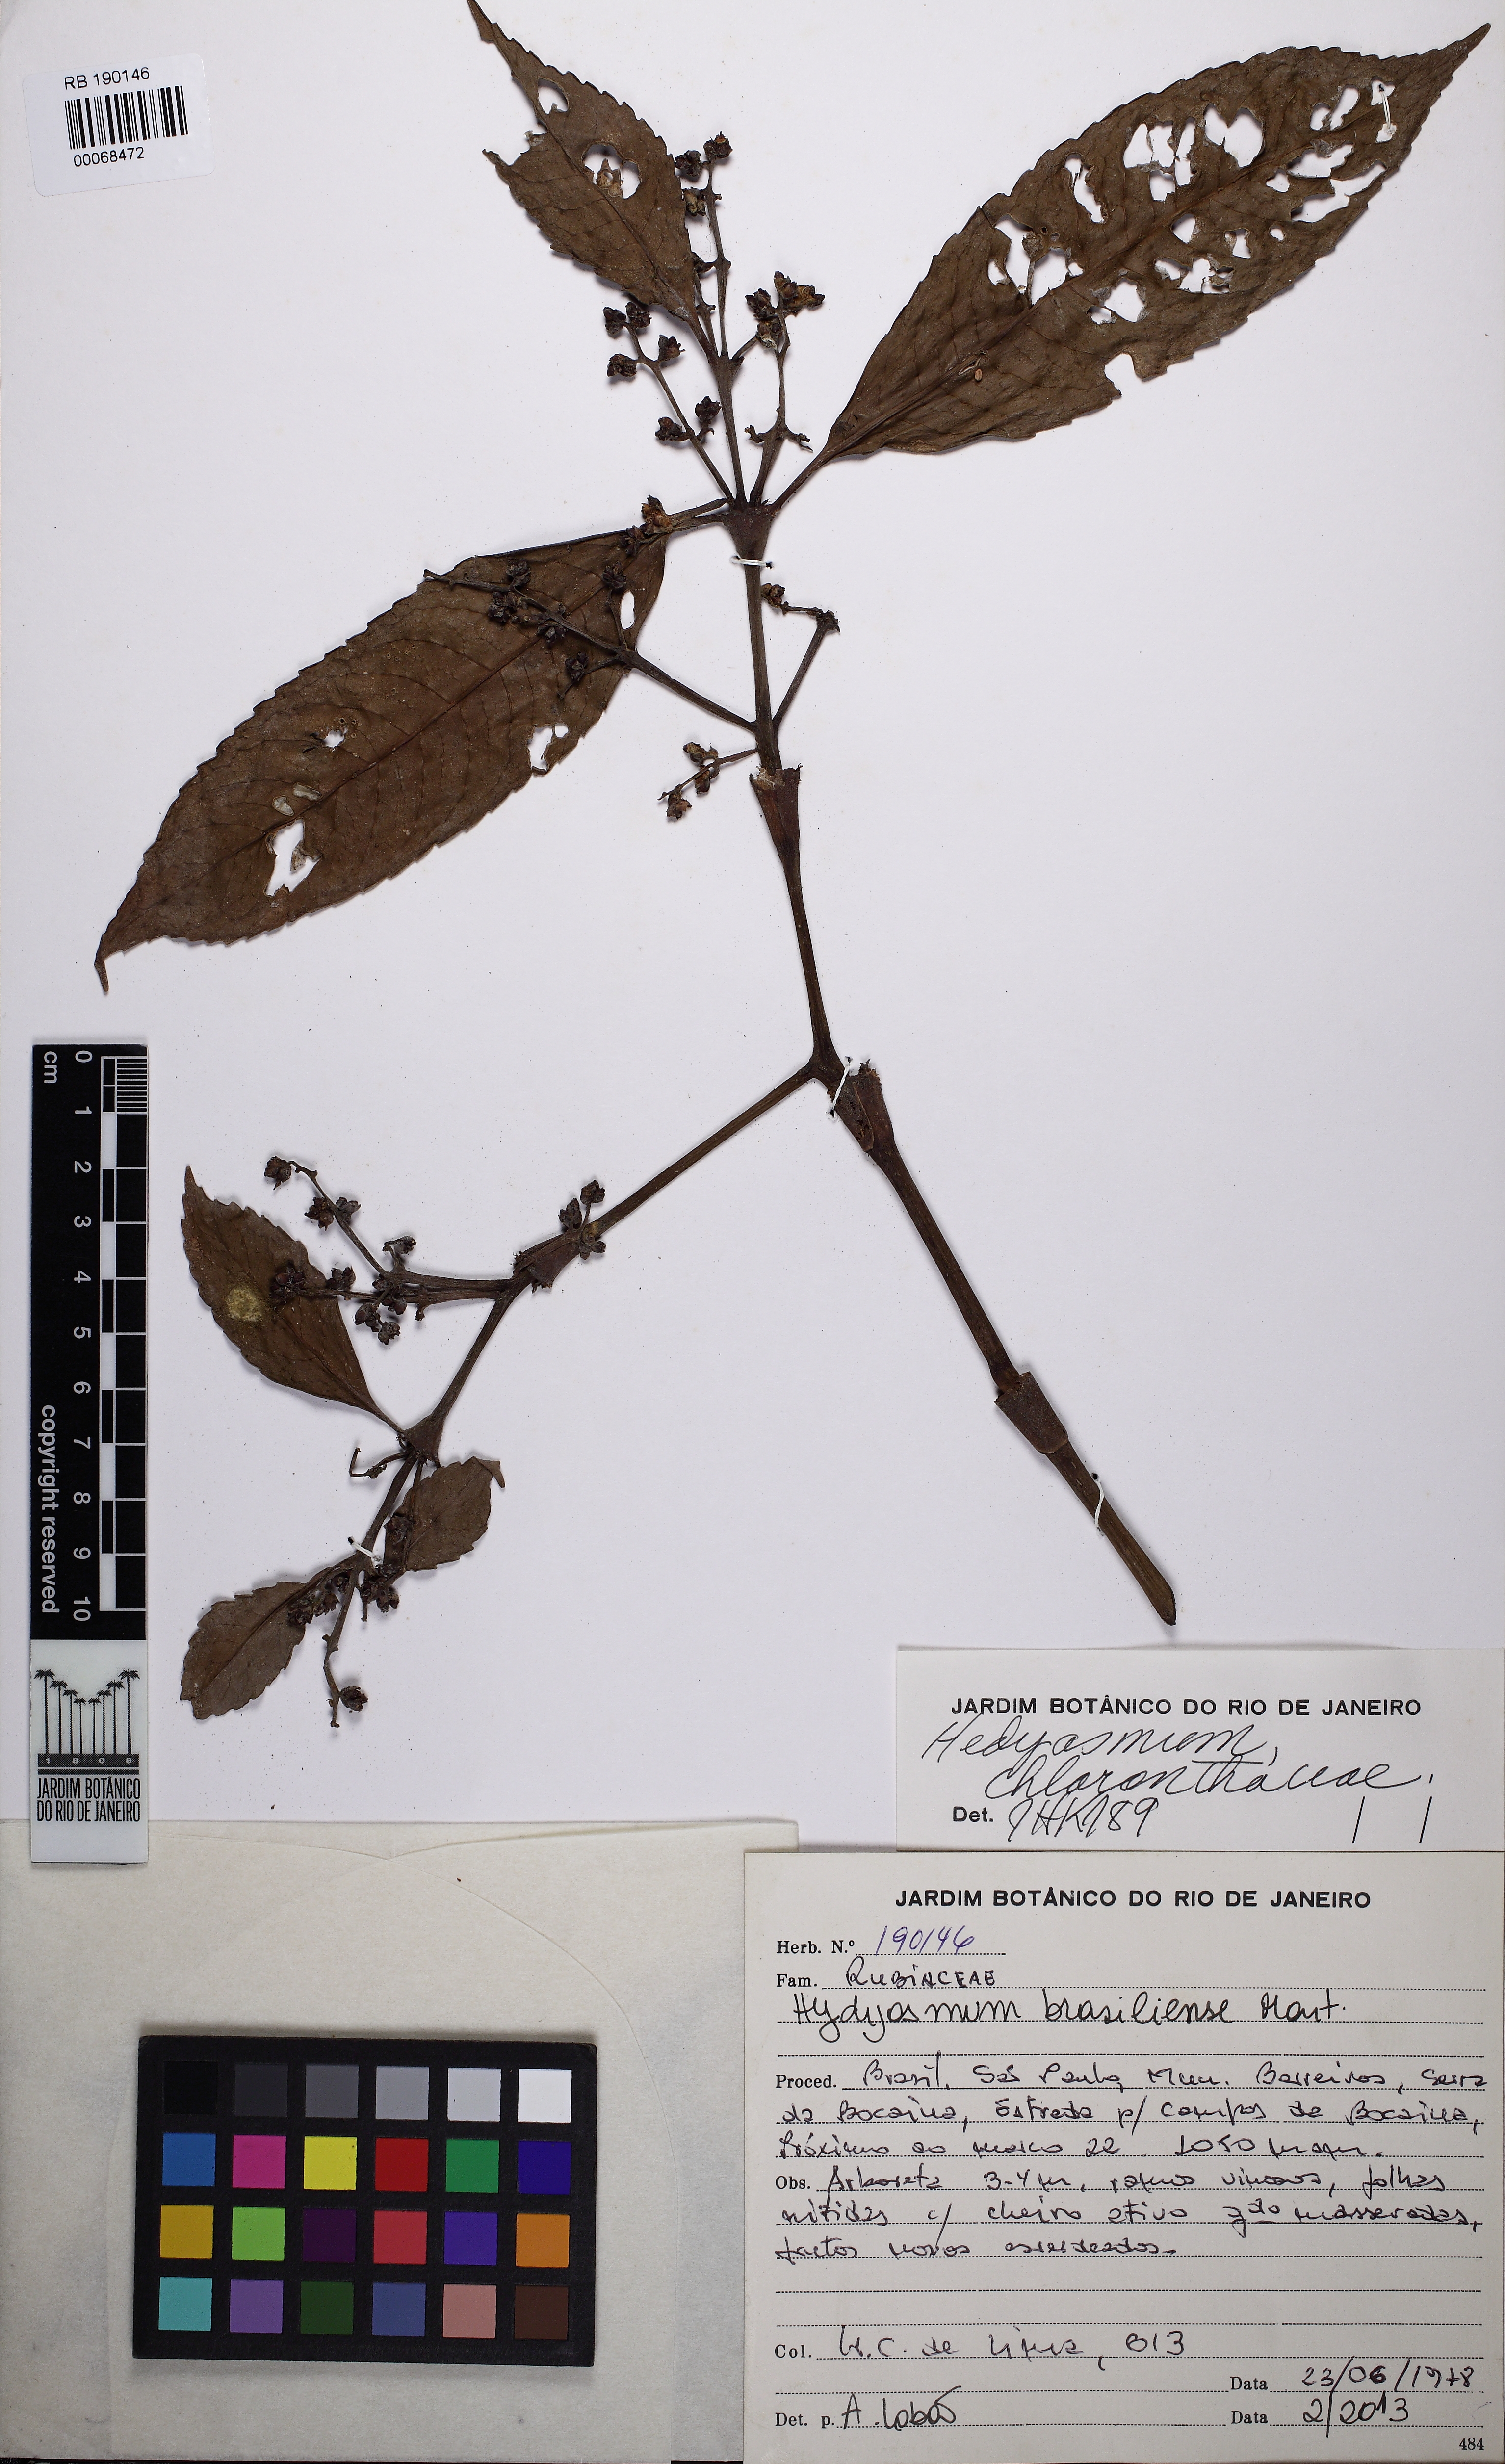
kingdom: Plantae
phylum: Tracheophyta
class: Magnoliopsida
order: Chloranthales
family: Chloranthaceae
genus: Hedyosmum
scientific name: Hedyosmum brasiliense
